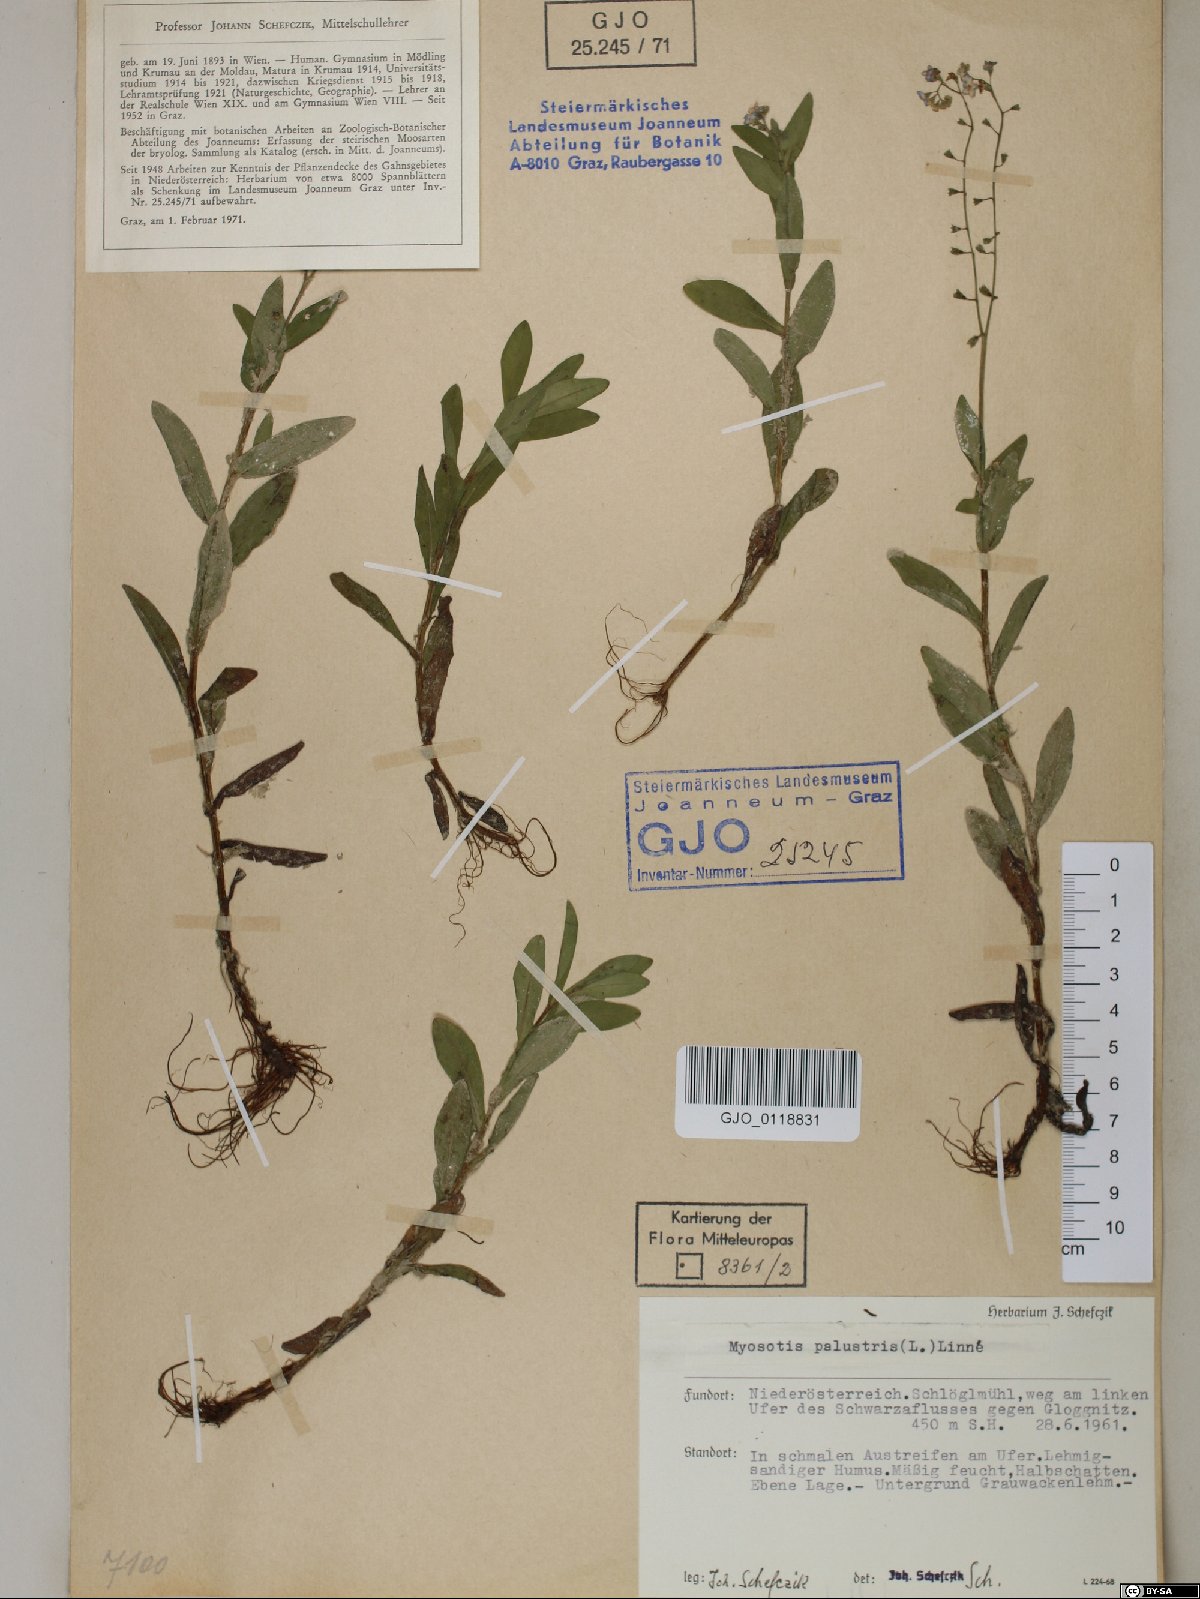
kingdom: Plantae
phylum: Tracheophyta
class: Magnoliopsida
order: Boraginales
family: Boraginaceae
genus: Myosotis
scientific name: Myosotis scorpioides
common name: Water forget-me-not
